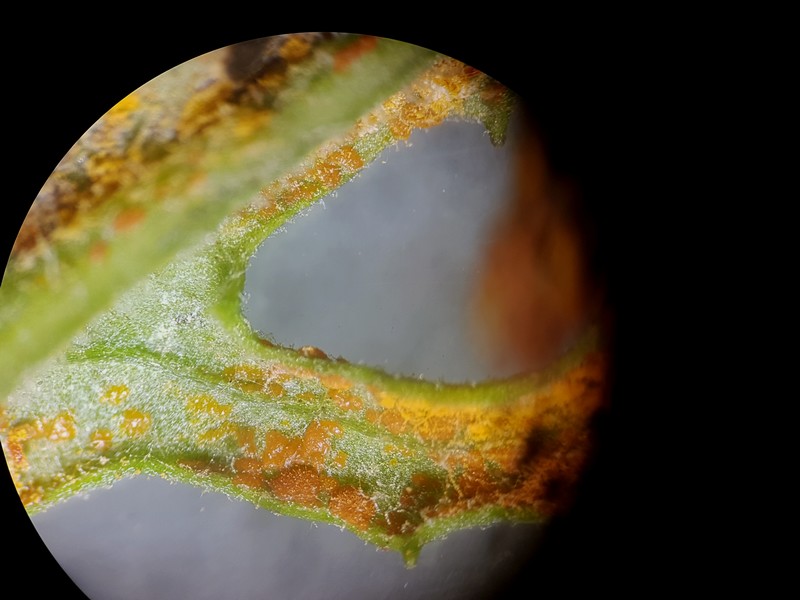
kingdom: Fungi
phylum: Basidiomycota
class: Pucciniomycetes
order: Pucciniales
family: Coleosporiaceae
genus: Coleosporium
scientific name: Coleosporium tussilaginis
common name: almindelig fyrrenålerust
